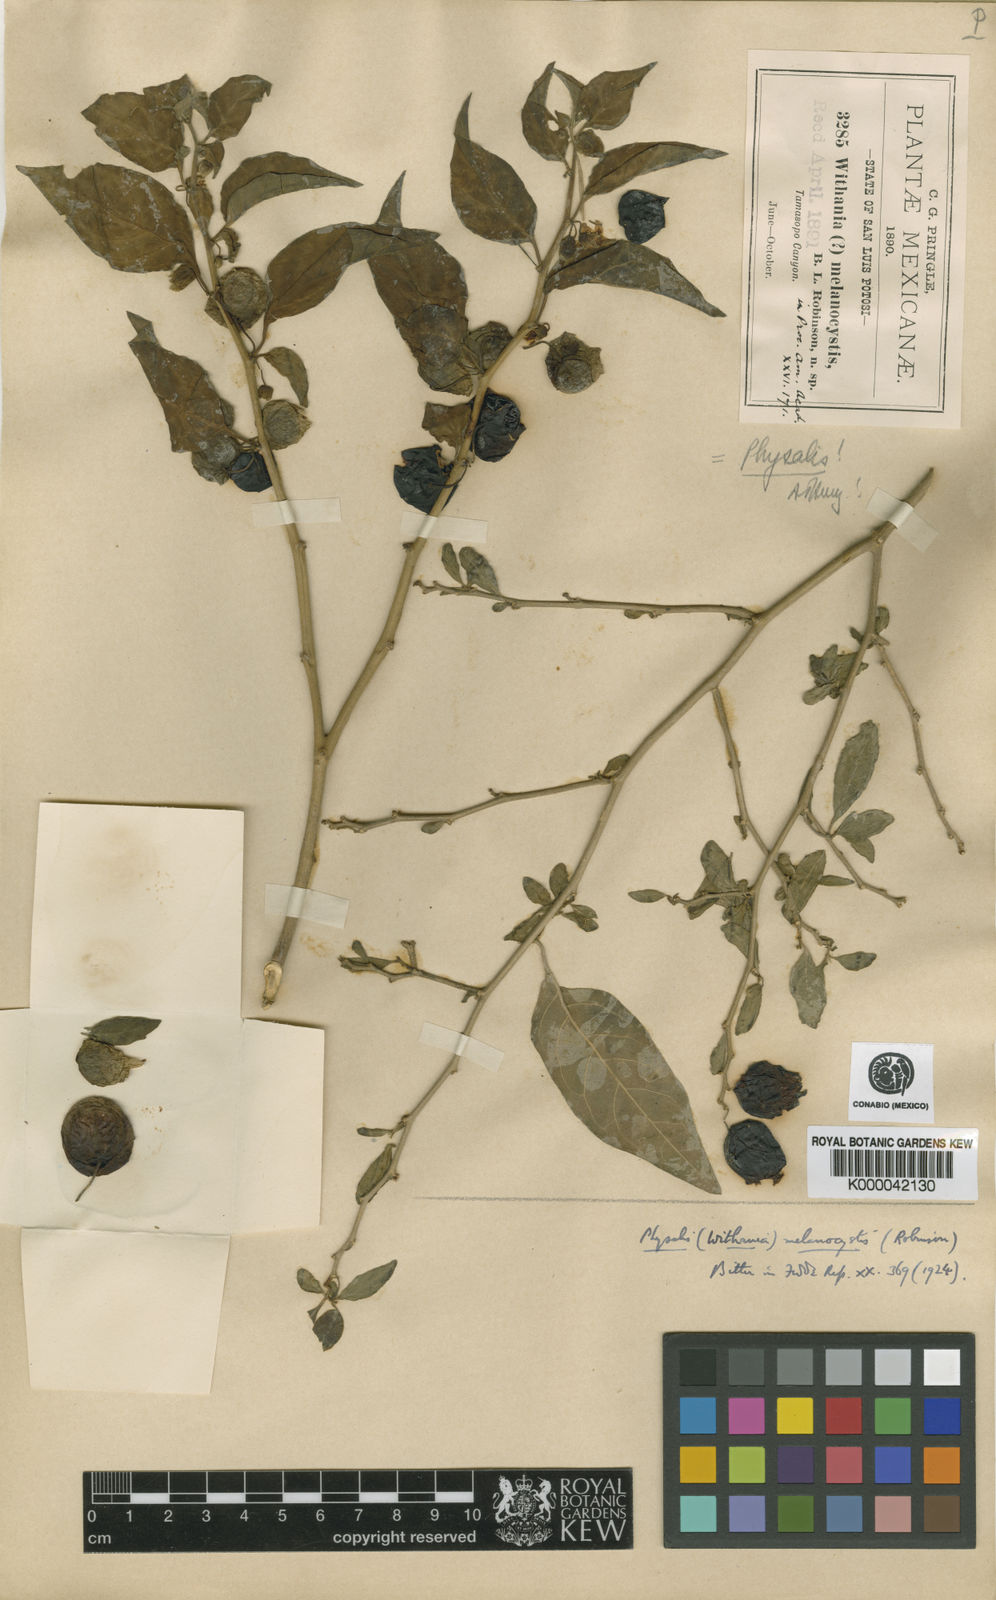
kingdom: Plantae
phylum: Tracheophyta
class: Magnoliopsida
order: Solanales
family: Solanaceae
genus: Physalis
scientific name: Physalis melanocystis
